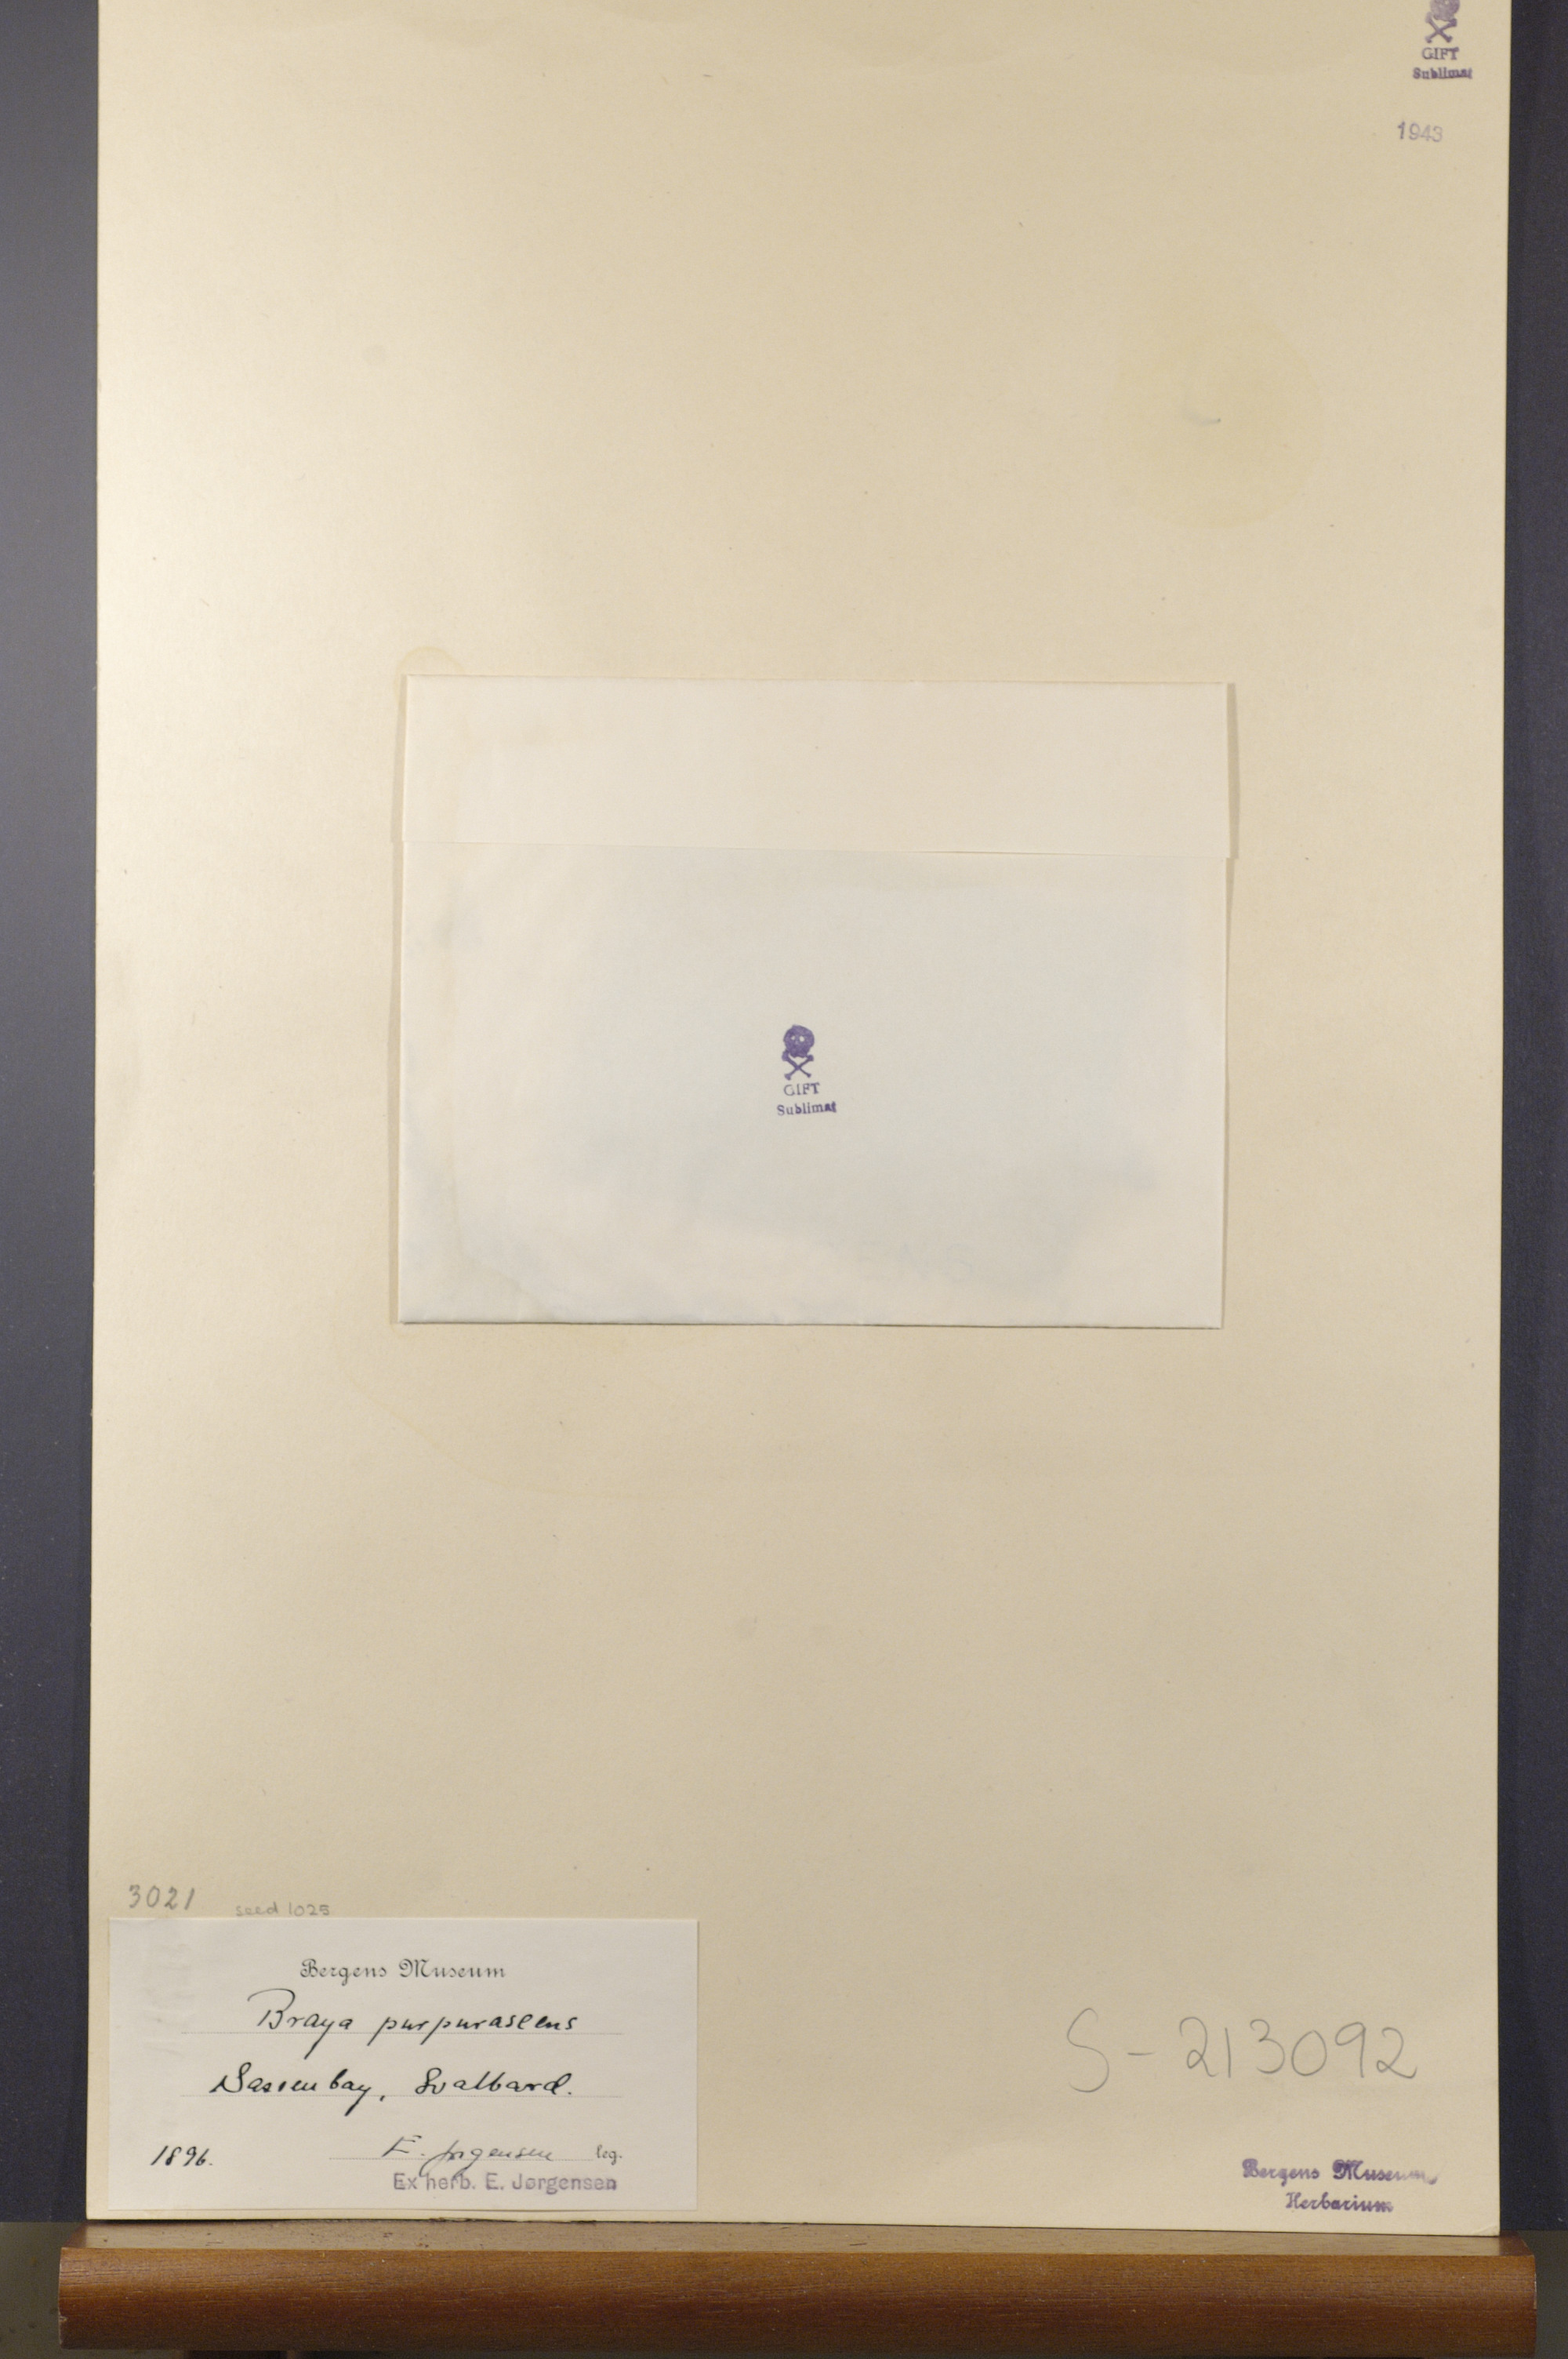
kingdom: Plantae
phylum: Tracheophyta
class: Magnoliopsida
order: Brassicales
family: Brassicaceae
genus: Braya
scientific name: Braya purpurascens
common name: Alpine braya
